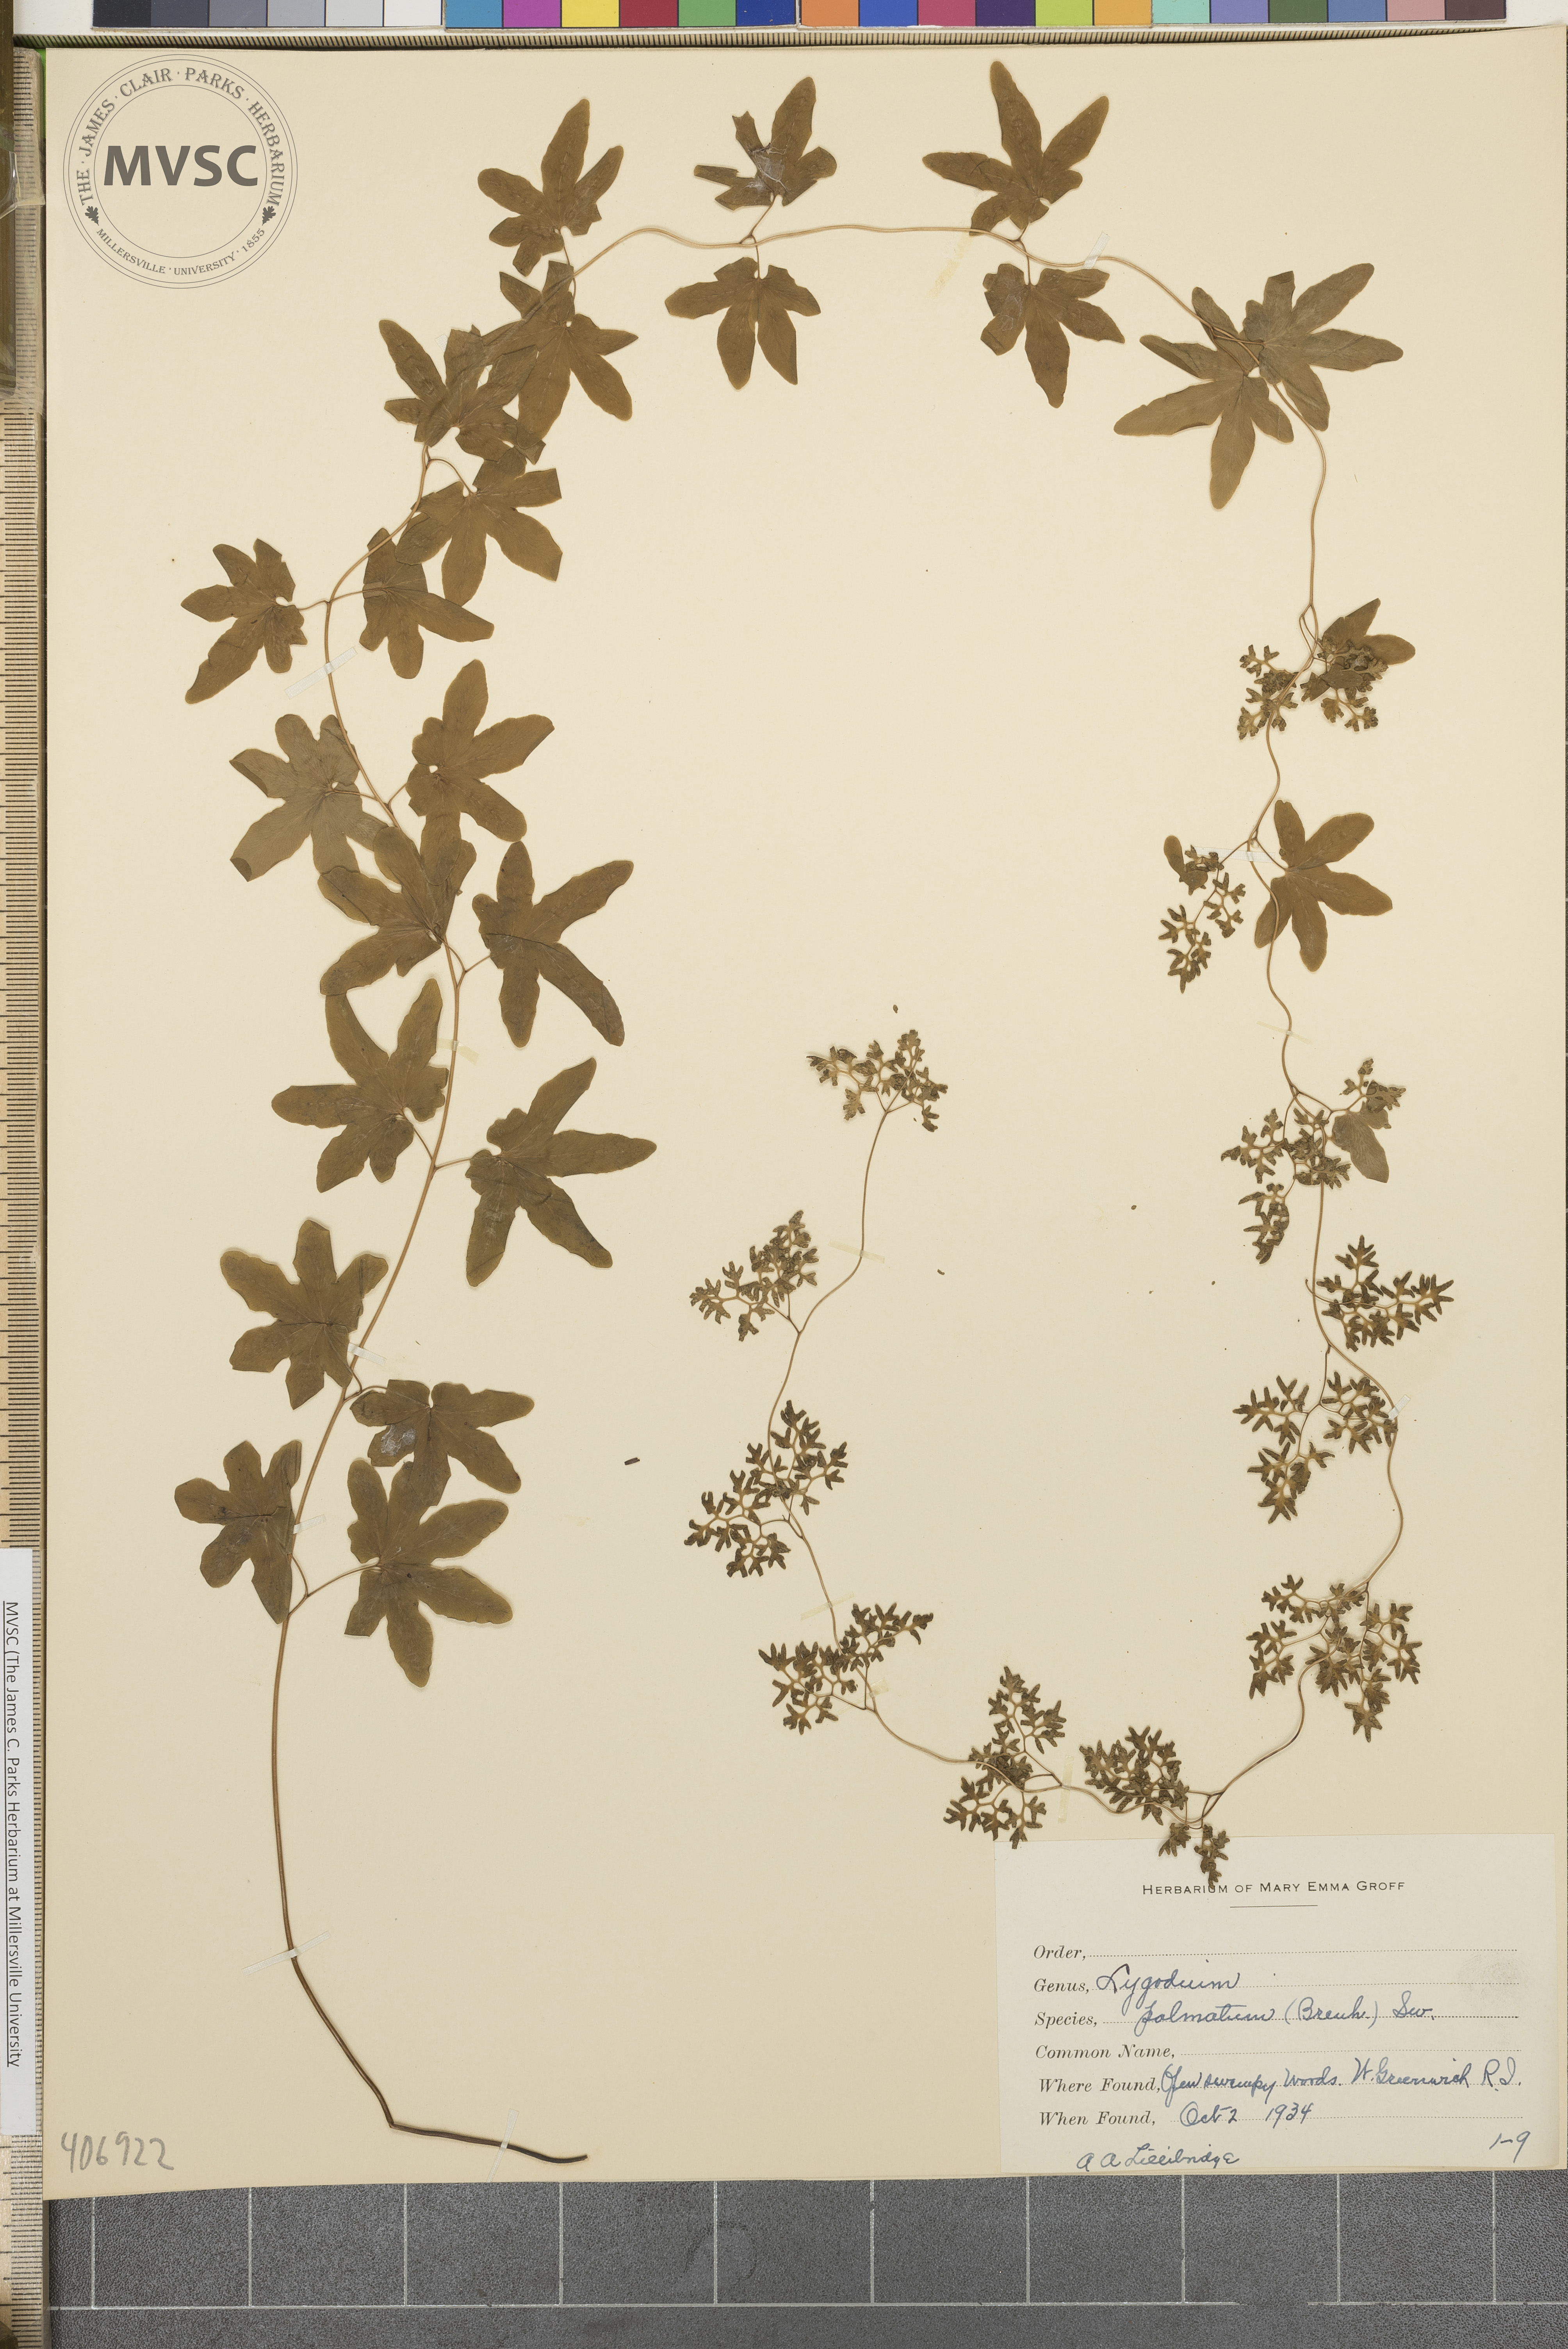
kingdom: Plantae
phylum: Tracheophyta
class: Polypodiopsida
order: Schizaeales
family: Lygodiaceae
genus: Lygodium
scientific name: Lygodium palmatum
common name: American climbing fern
